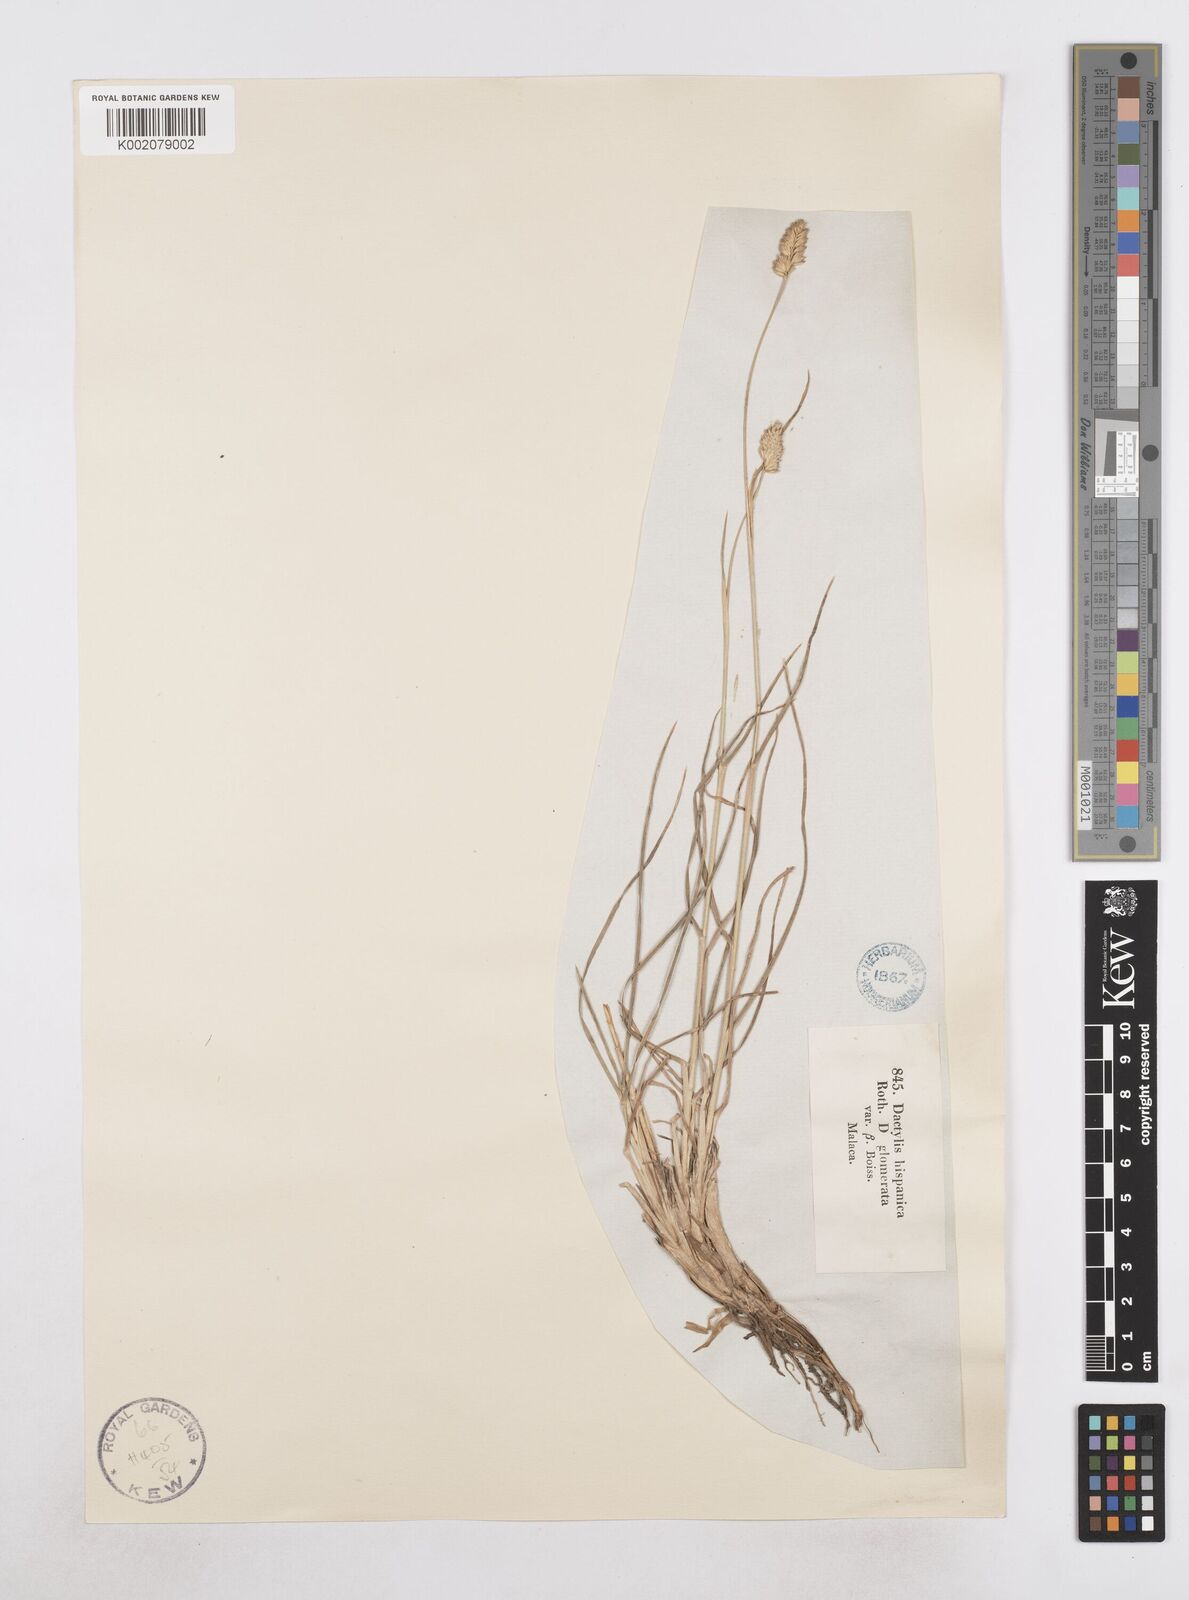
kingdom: Plantae
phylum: Tracheophyta
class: Liliopsida
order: Poales
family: Poaceae
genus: Dactylis
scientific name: Dactylis glomerata
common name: Orchardgrass
